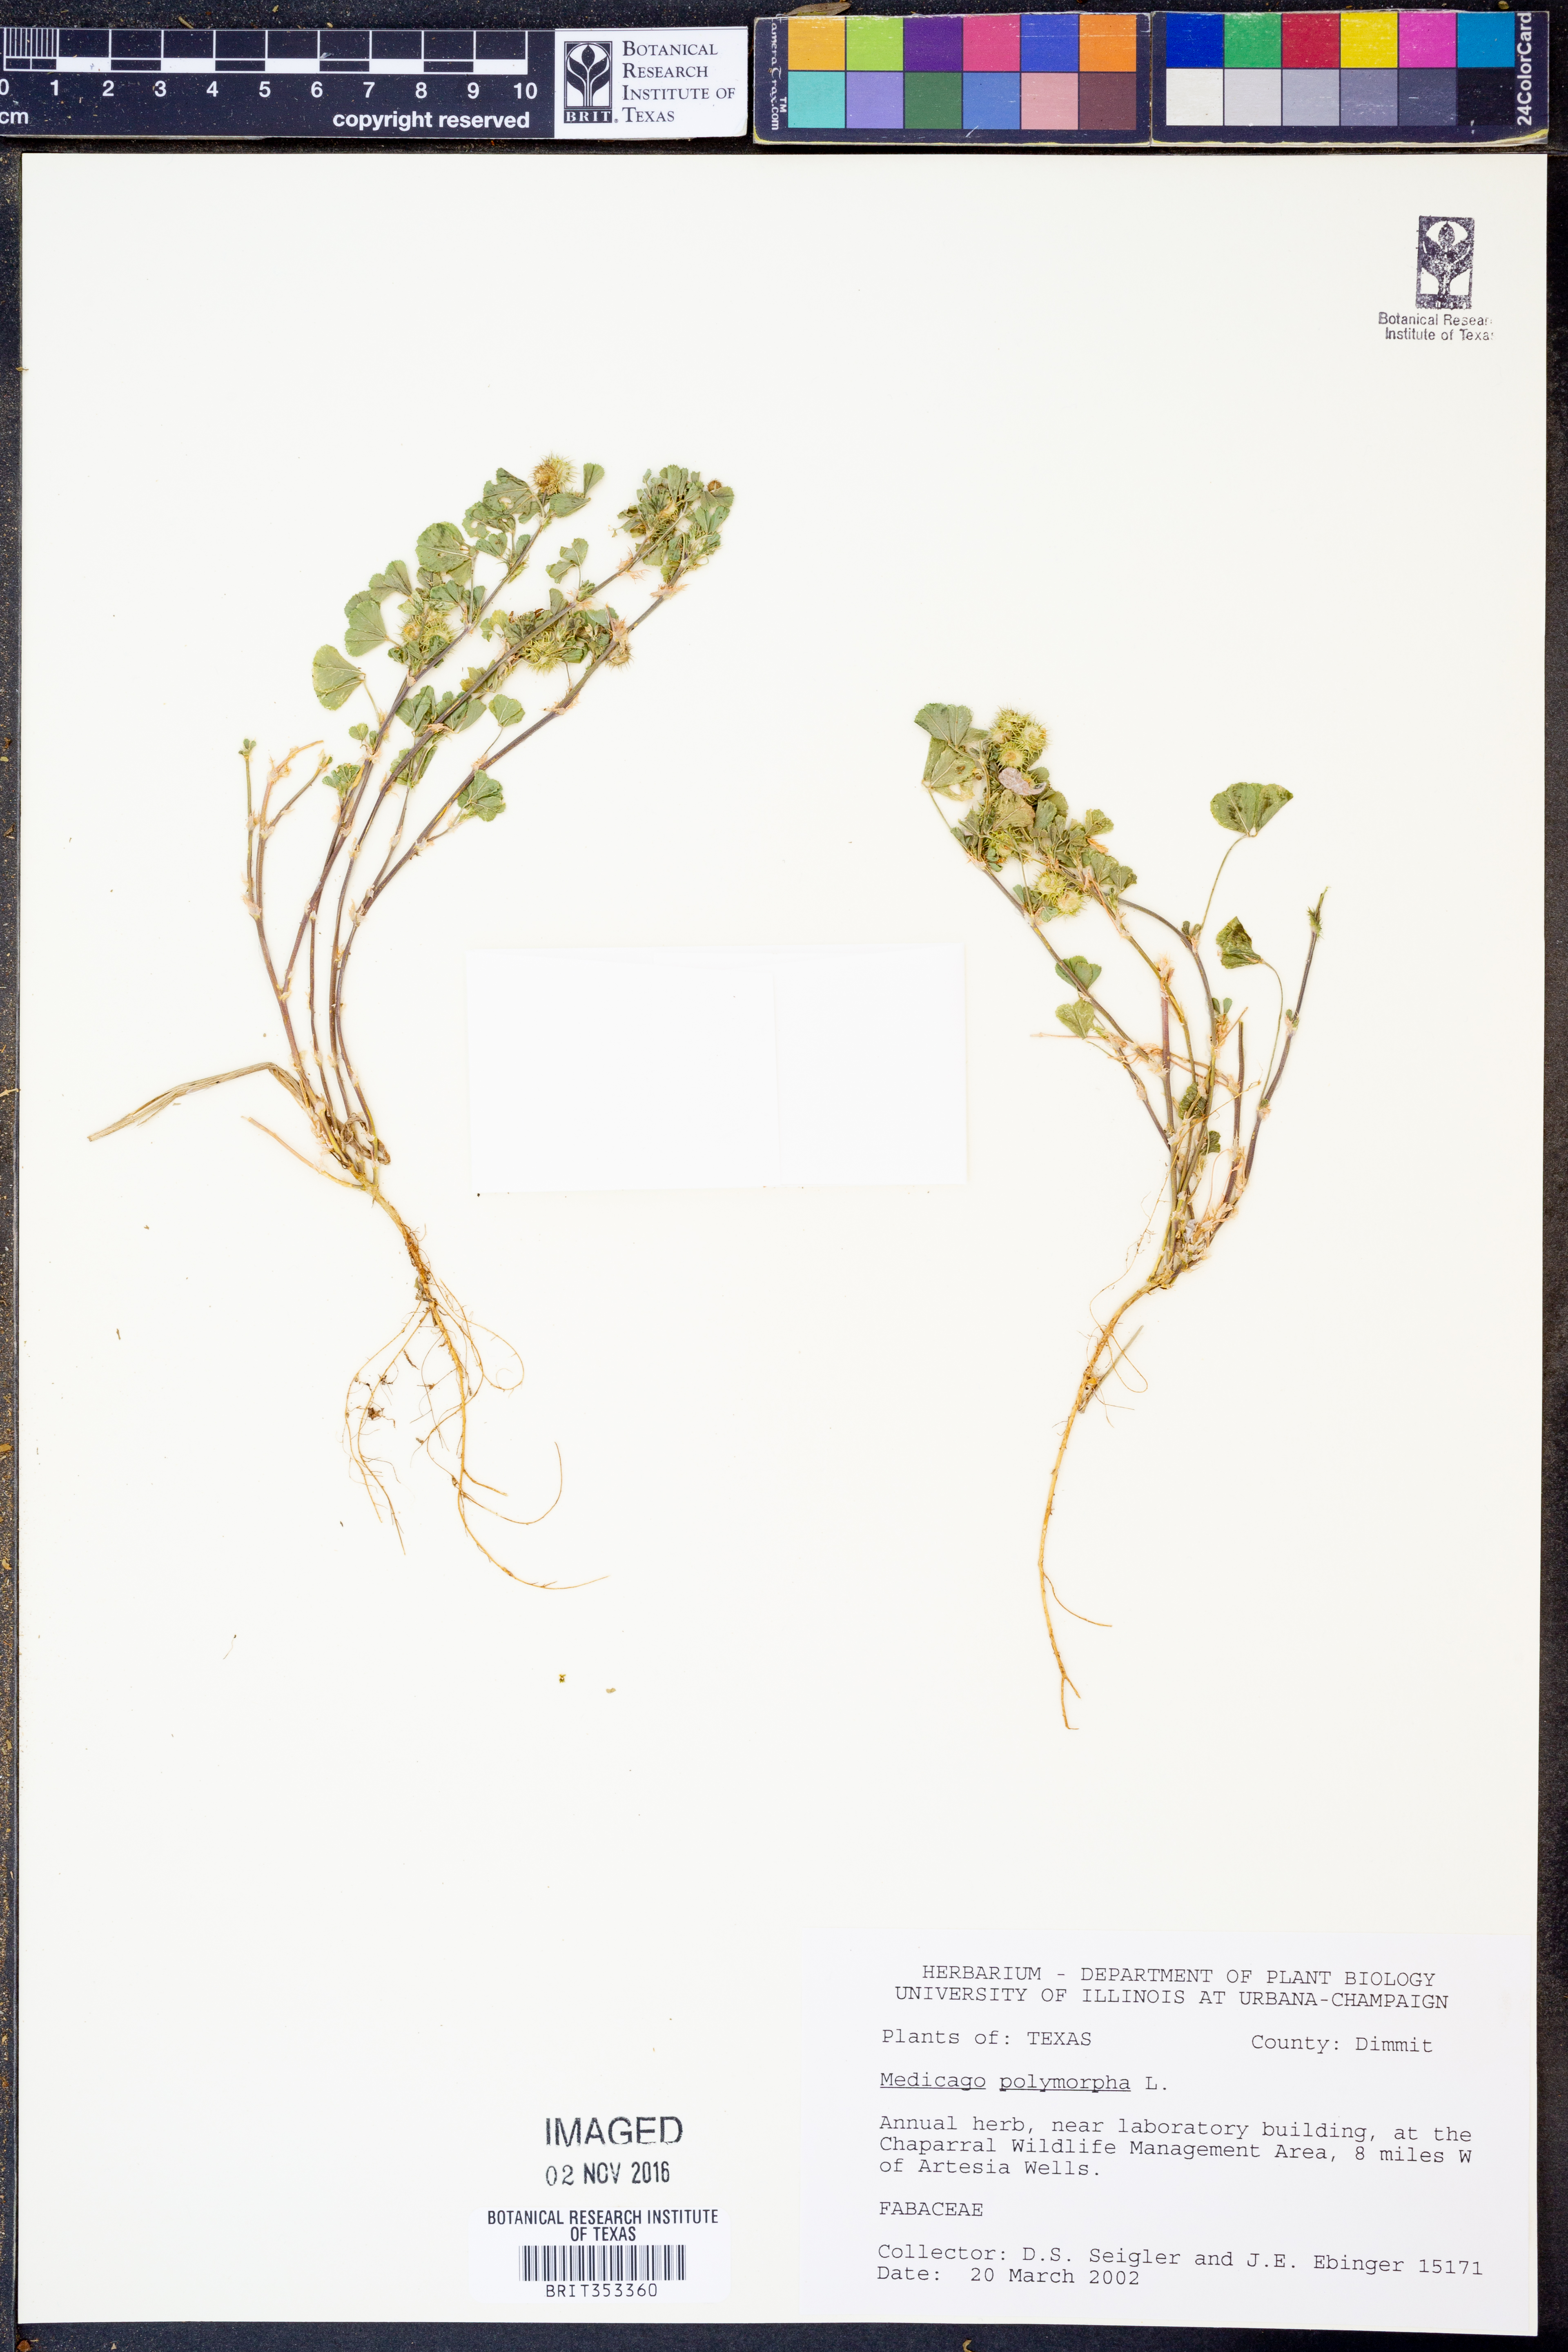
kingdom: Plantae
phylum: Tracheophyta
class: Magnoliopsida
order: Fabales
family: Fabaceae
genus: Medicago
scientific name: Medicago polymorpha
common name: Burclover
